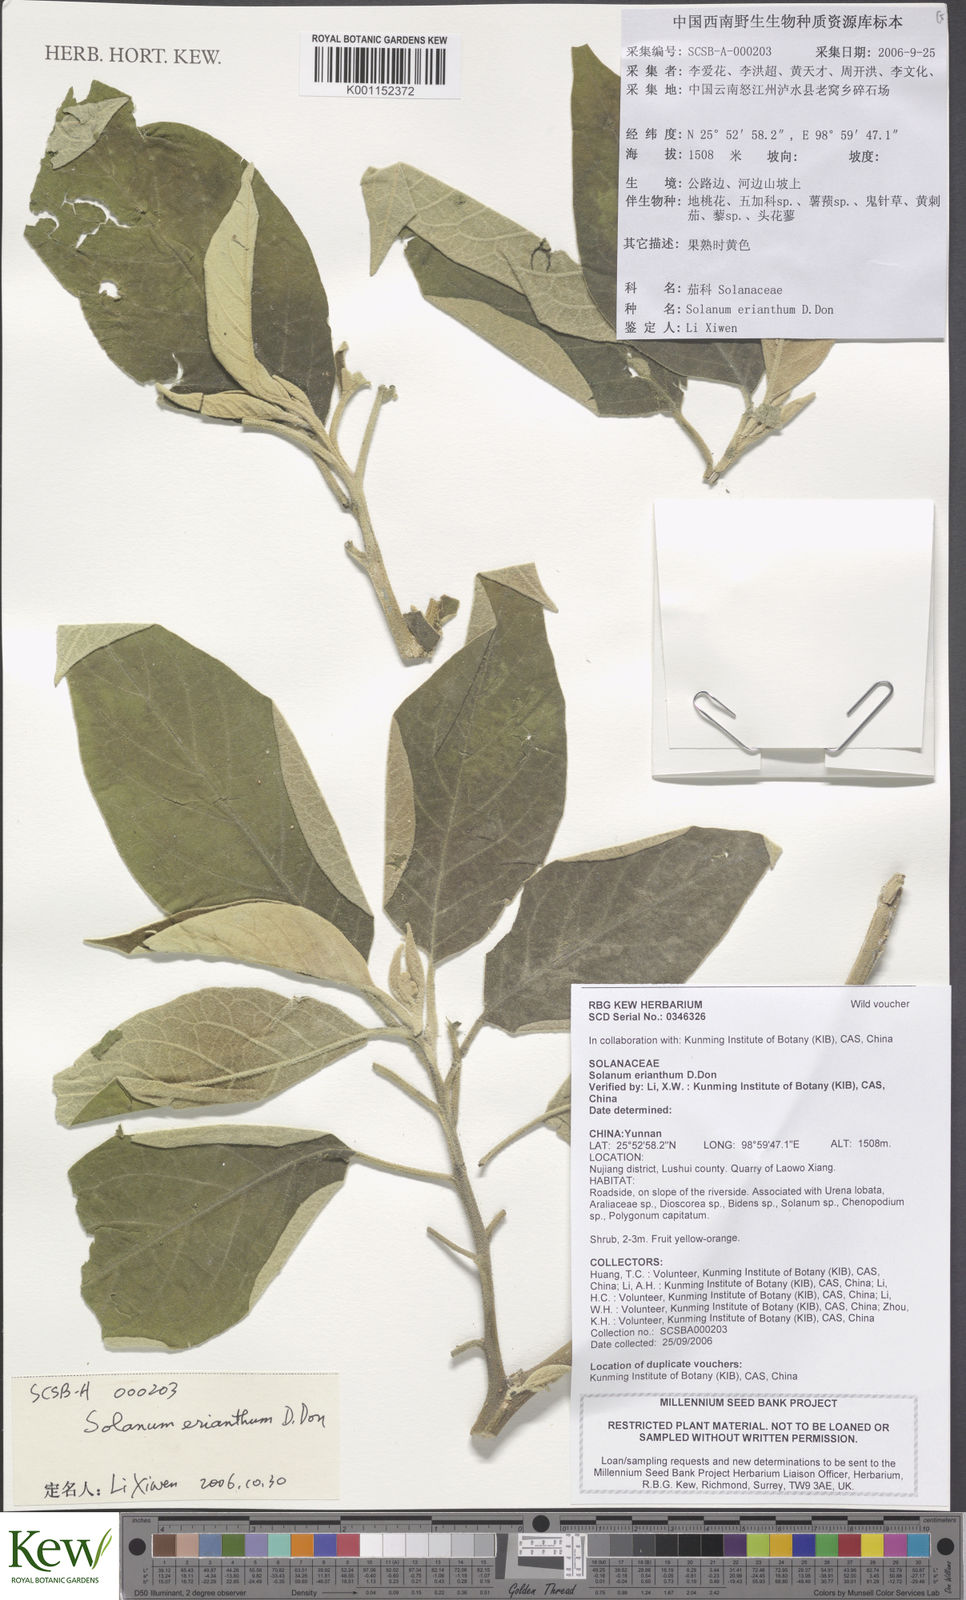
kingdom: Plantae
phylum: Tracheophyta
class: Magnoliopsida
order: Solanales
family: Solanaceae
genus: Solanum
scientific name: Solanum erianthum
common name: Tobacco-tree
